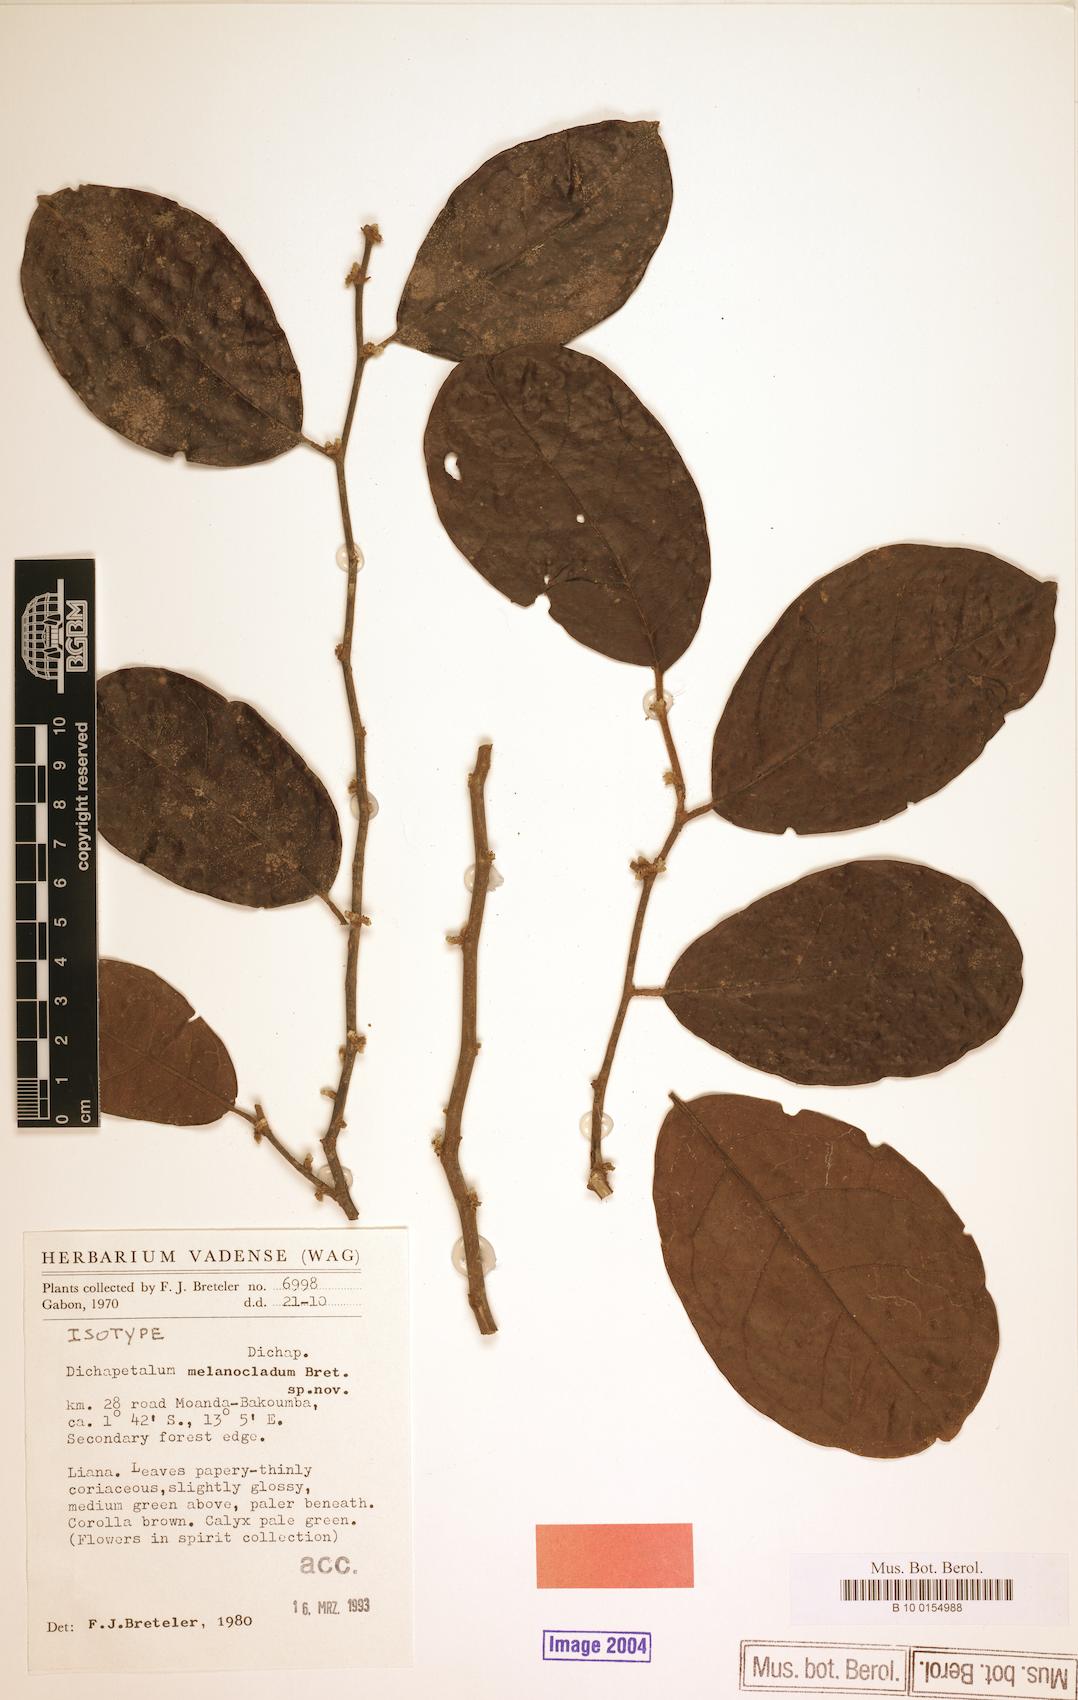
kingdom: Plantae
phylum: Tracheophyta
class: Magnoliopsida
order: Malpighiales
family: Dichapetalaceae
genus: Dichapetalum
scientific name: Dichapetalum melanocladum
